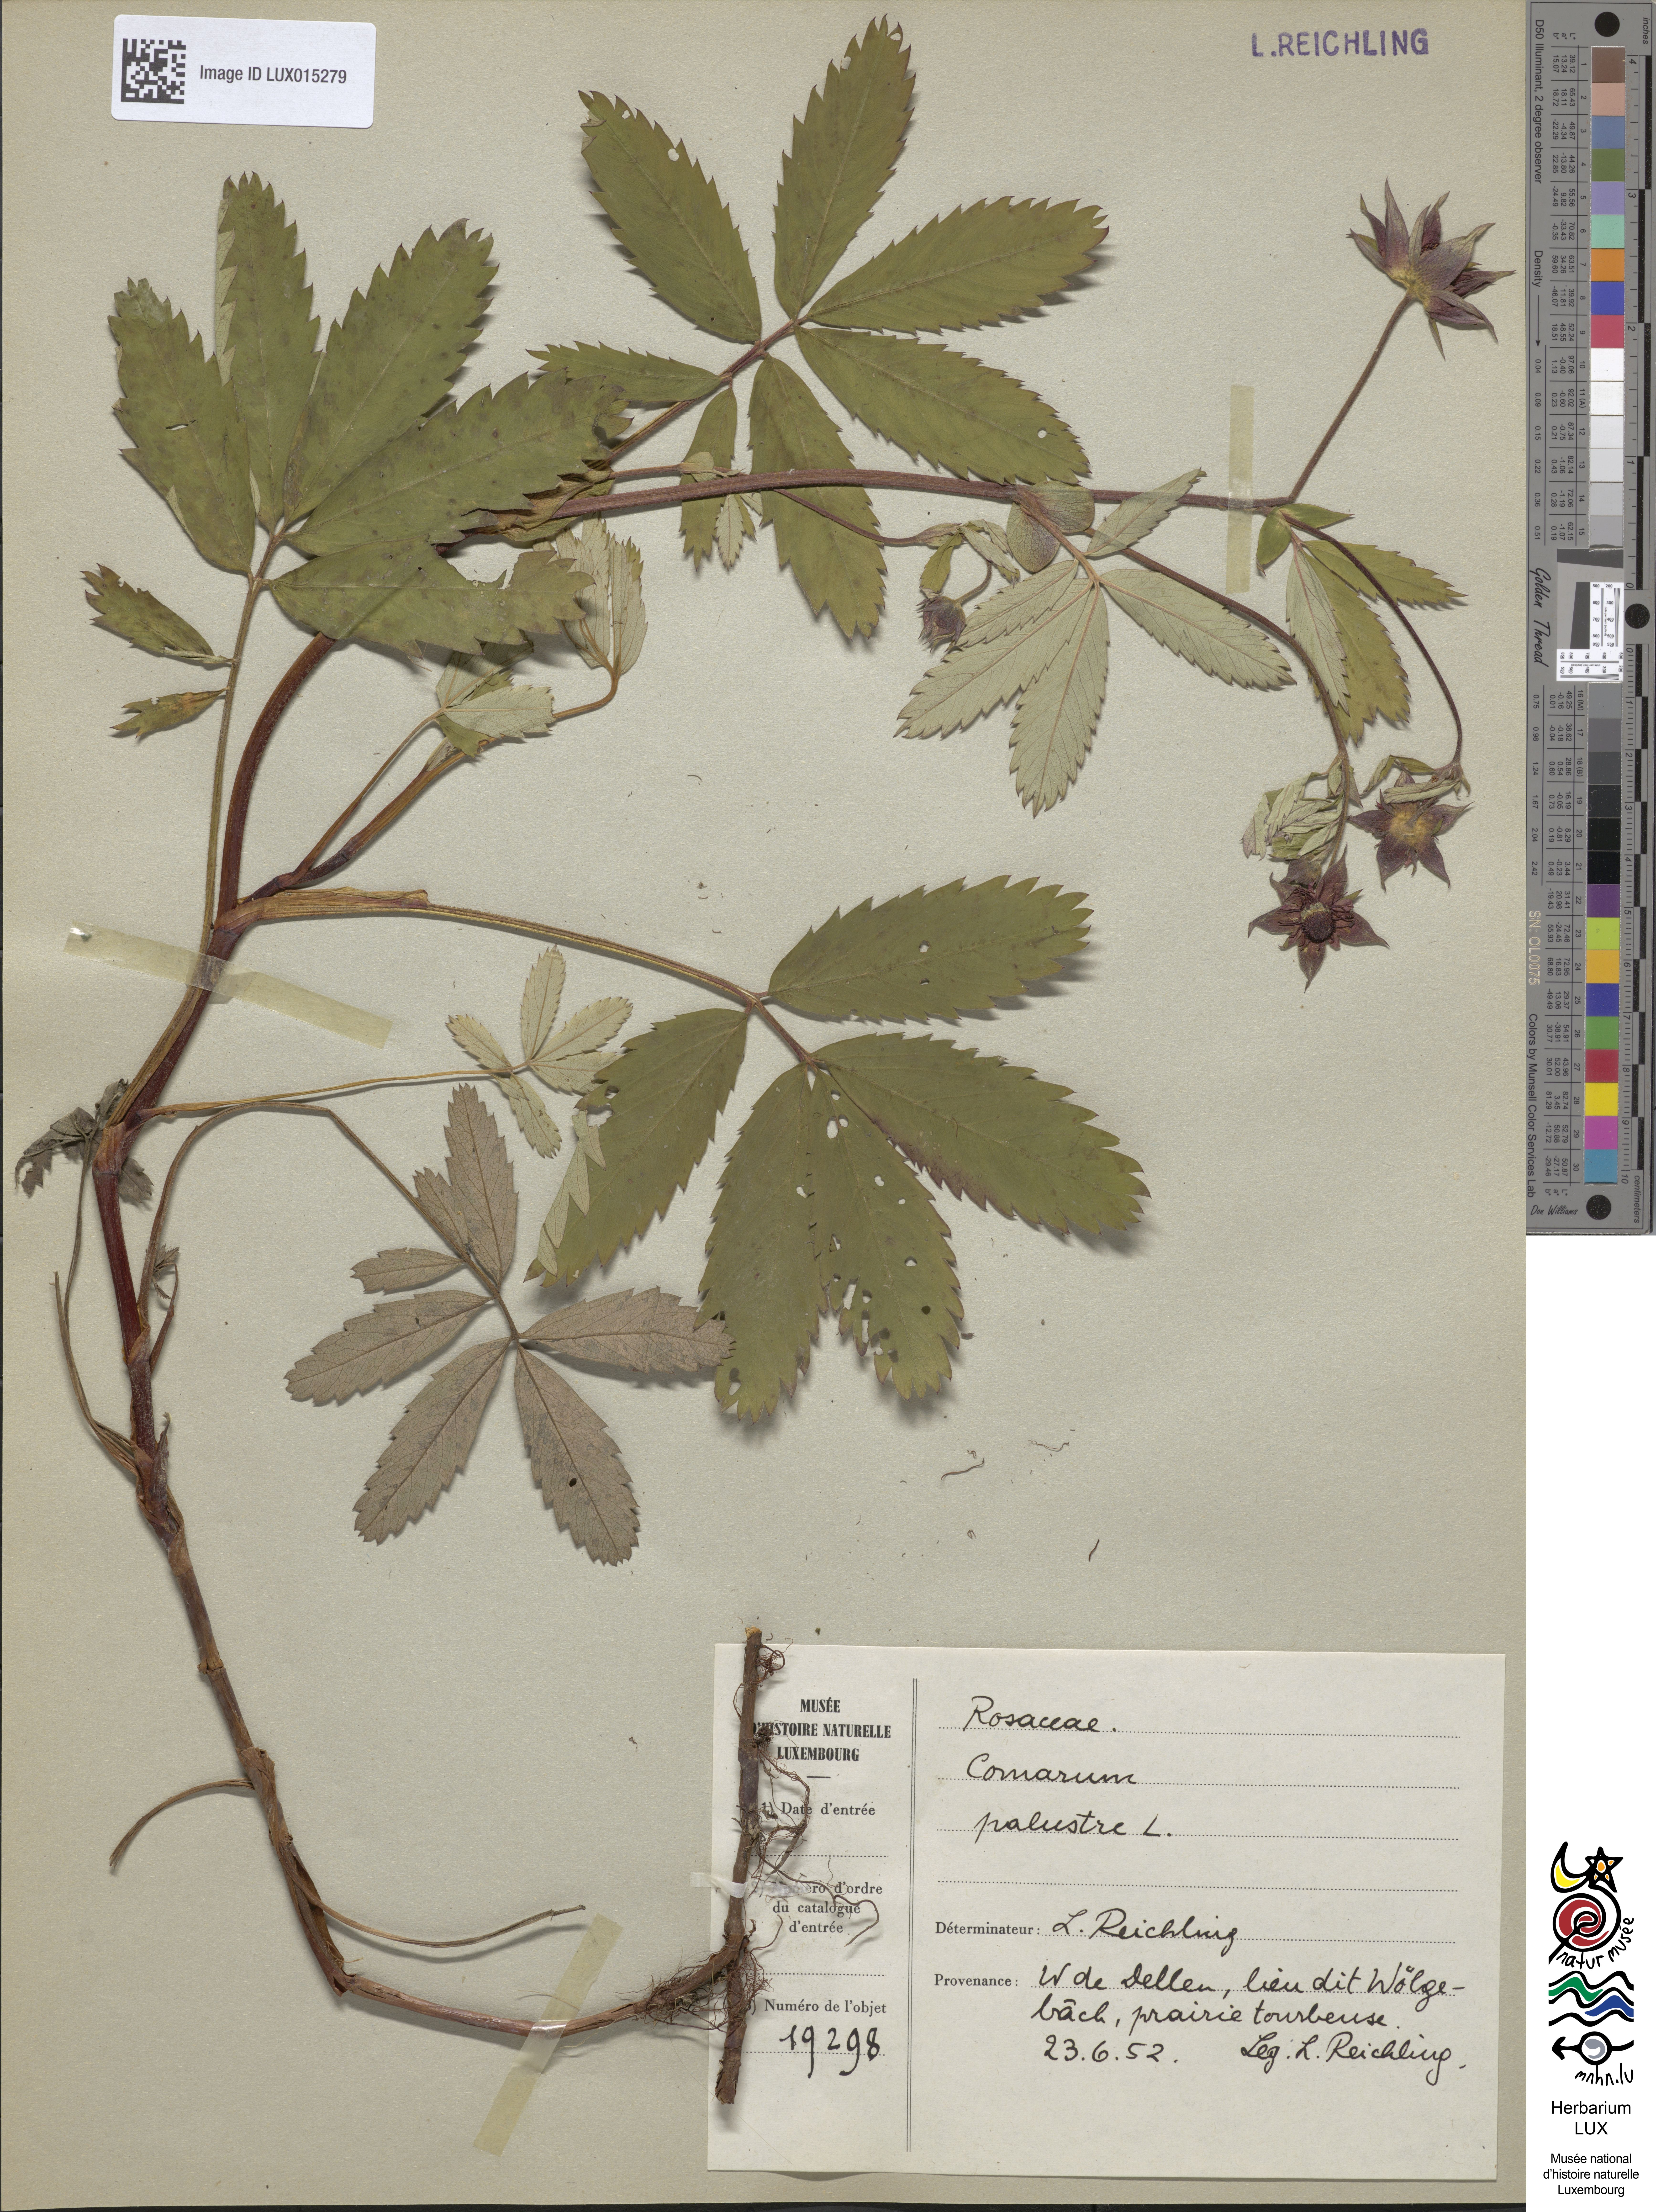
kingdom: Plantae
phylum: Tracheophyta
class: Magnoliopsida
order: Rosales
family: Rosaceae
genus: Comarum
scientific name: Comarum palustre
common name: Marsh cinquefoil
